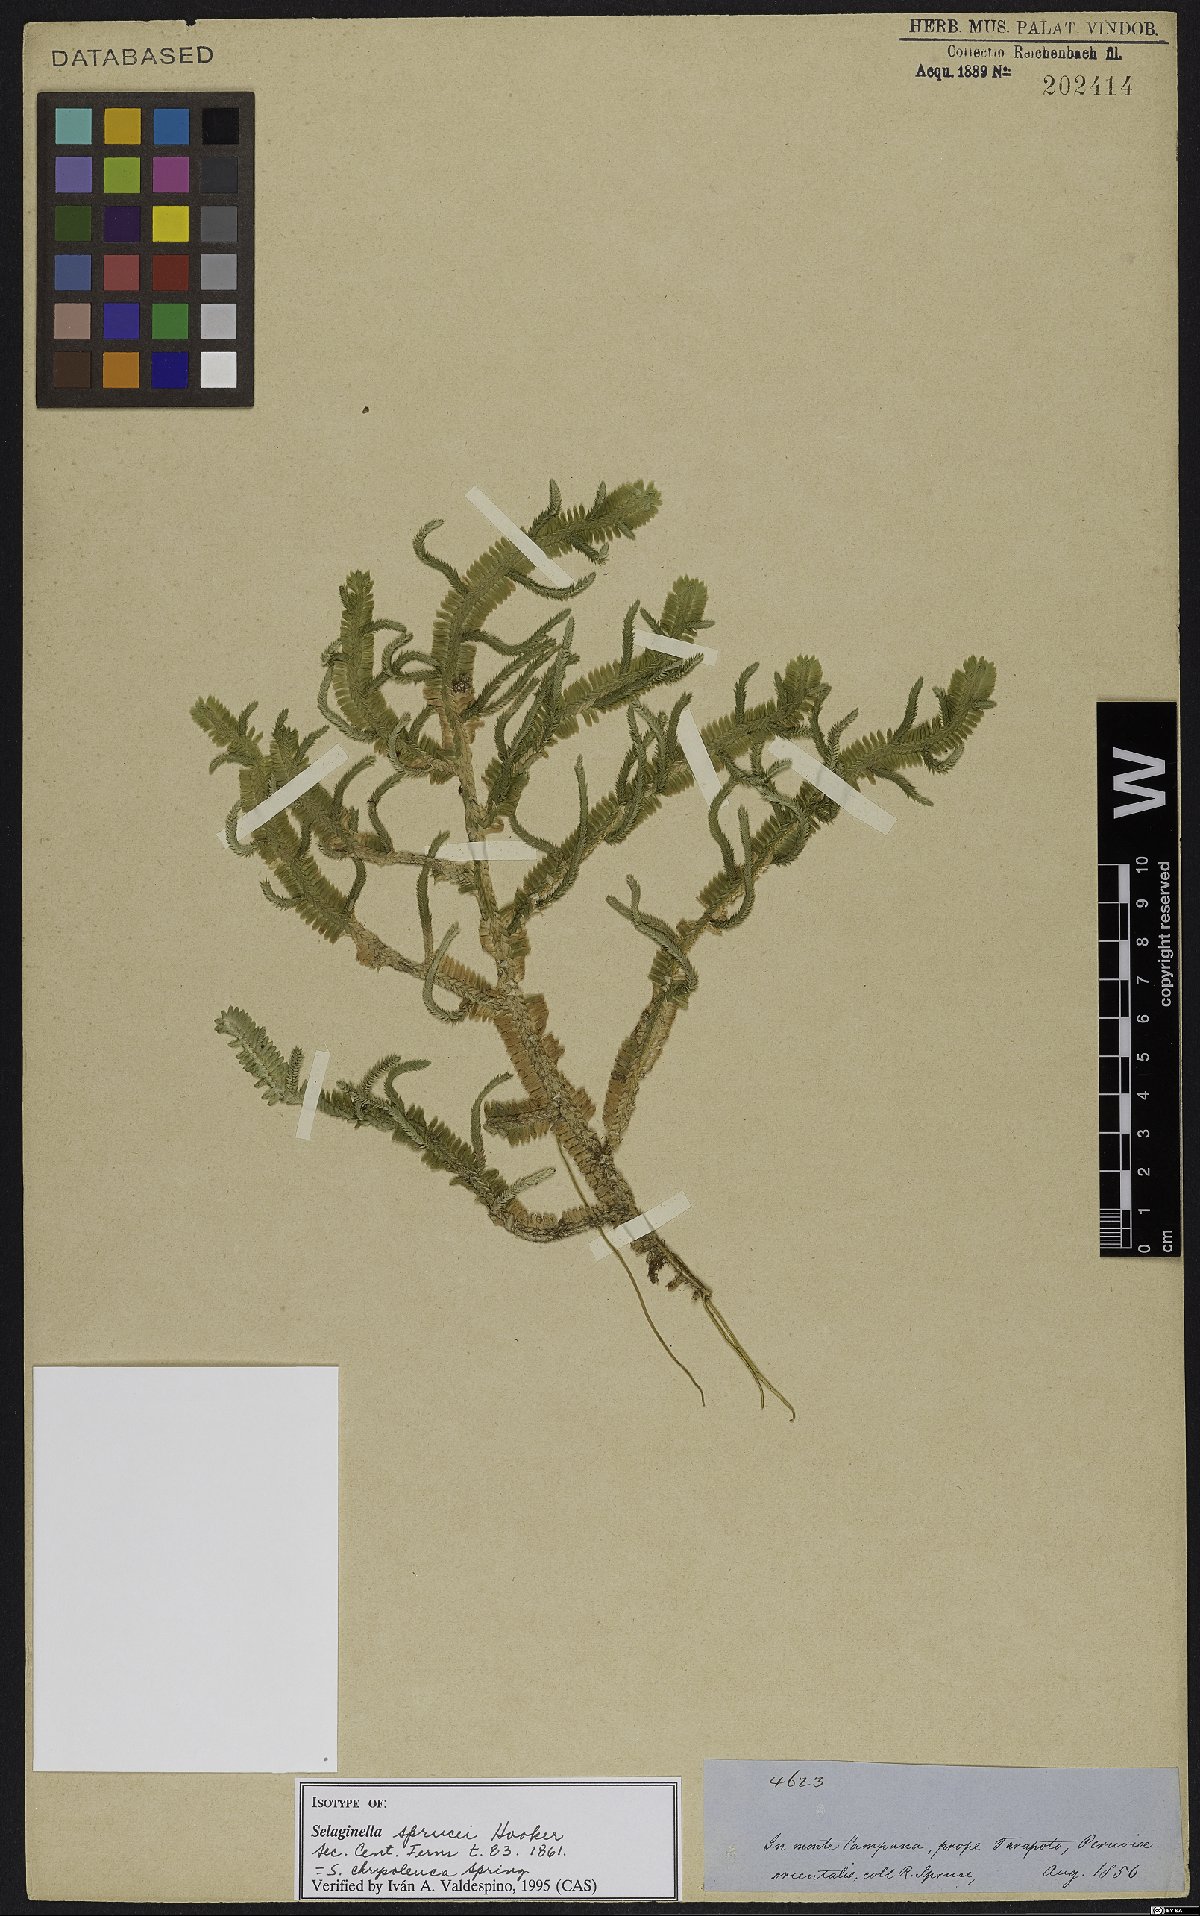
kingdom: Plantae
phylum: Tracheophyta
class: Lycopodiopsida
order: Selaginellales
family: Selaginellaceae
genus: Selaginella
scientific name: Selaginella chrysoleuca
